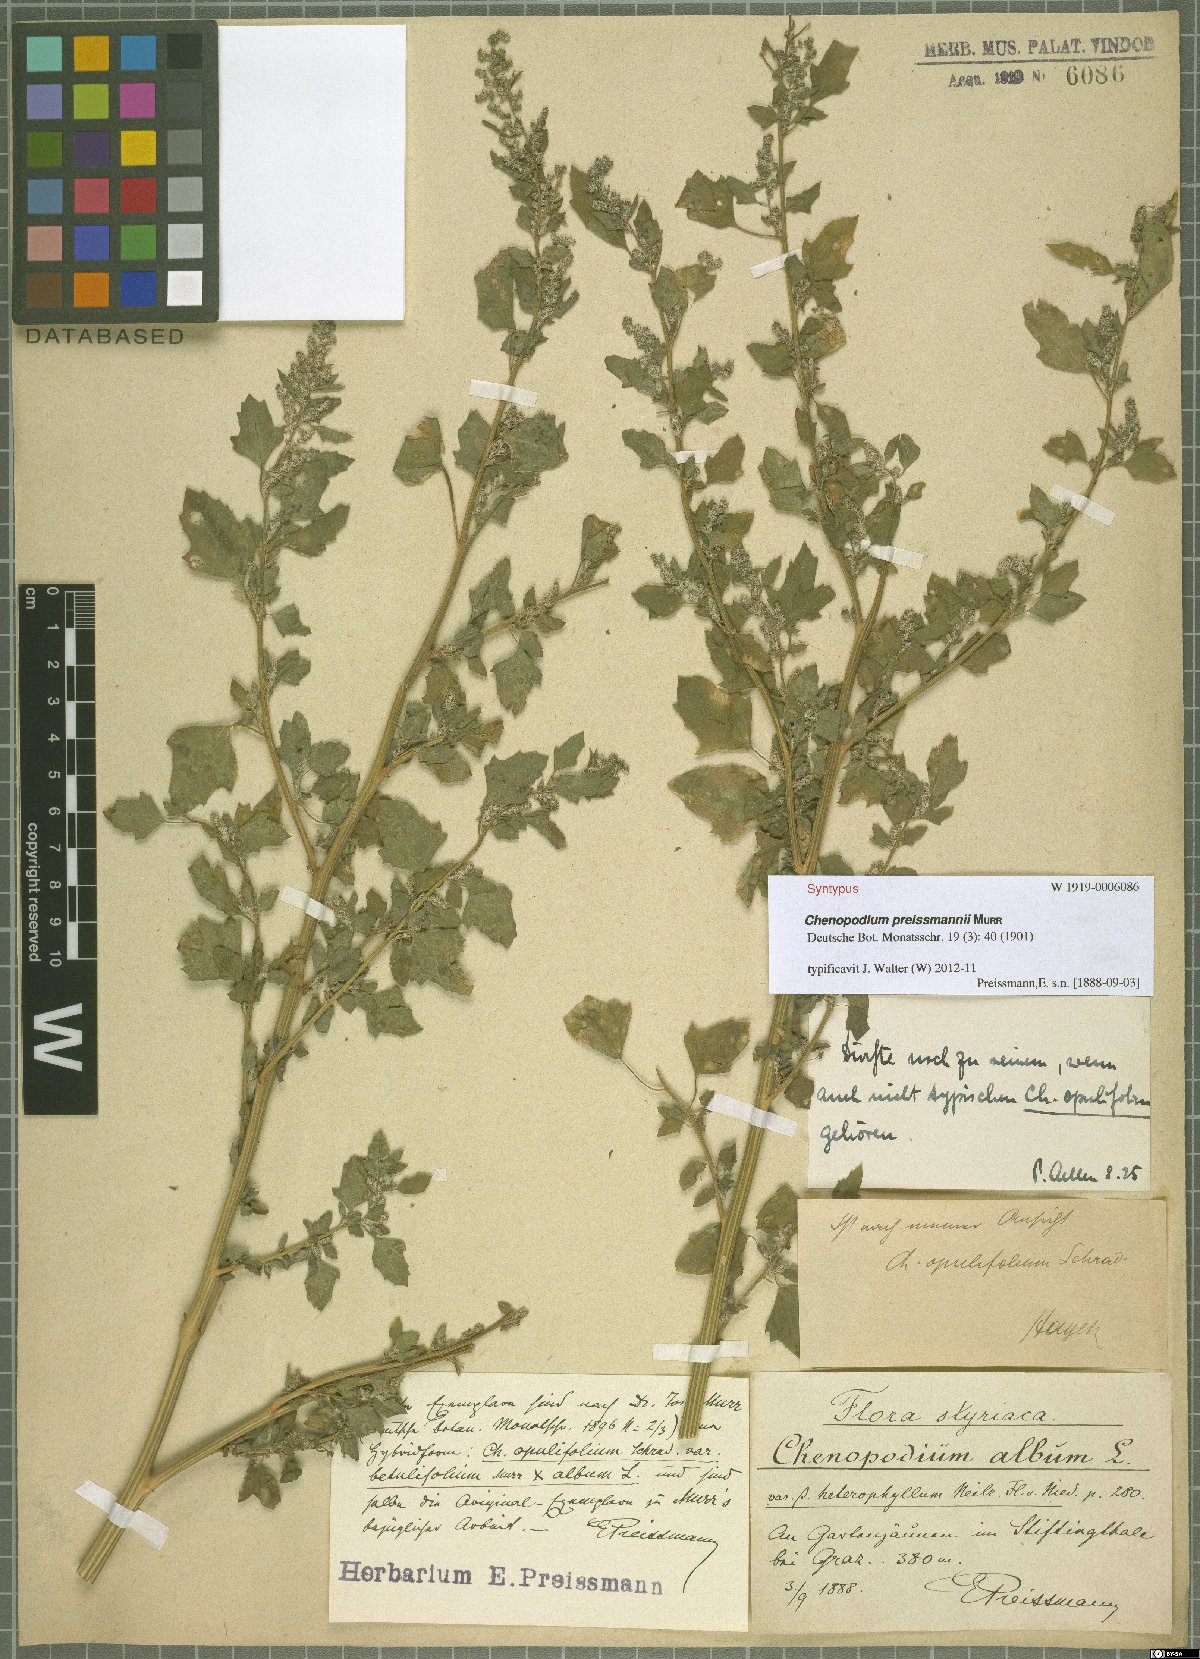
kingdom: Plantae
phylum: Tracheophyta
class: Magnoliopsida
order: Caryophyllales
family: Amaranthaceae
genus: Chenopodium
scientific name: Chenopodium betulifolium
